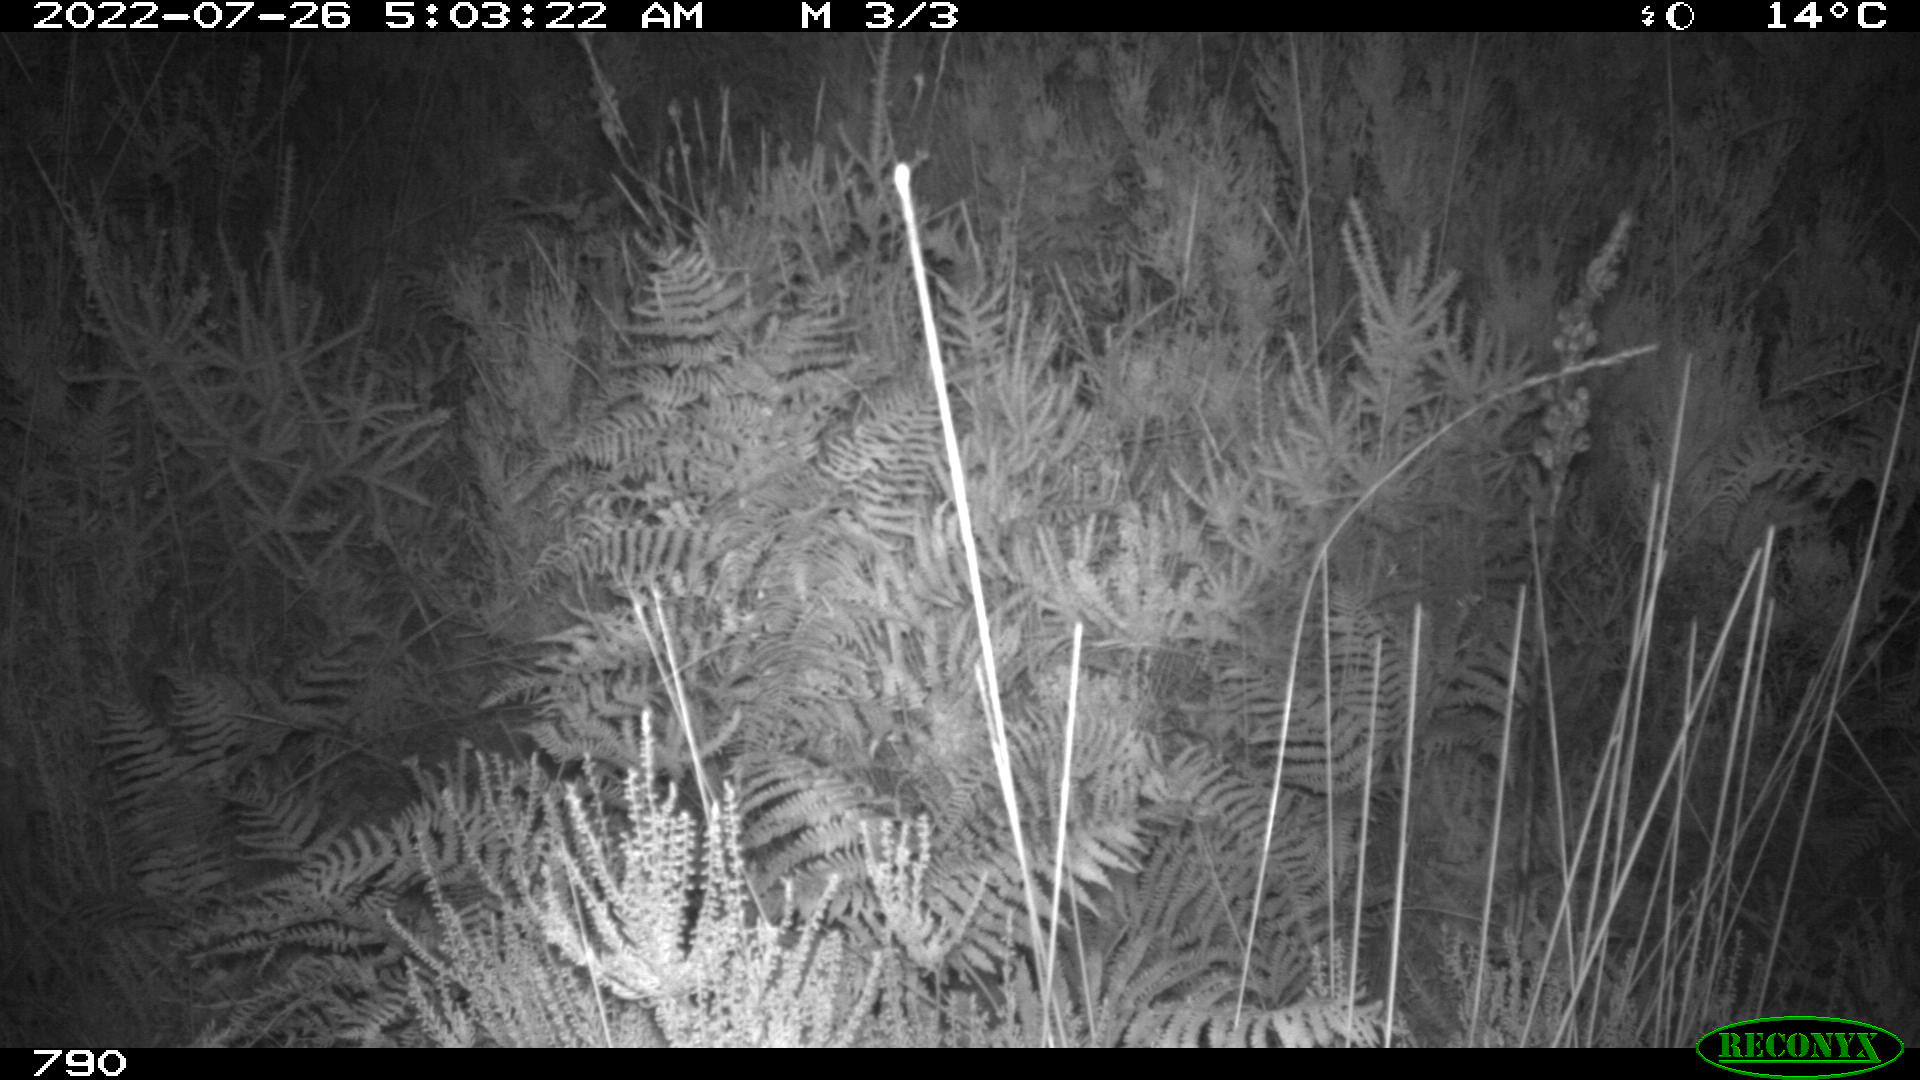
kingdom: Animalia
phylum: Chordata
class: Mammalia
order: Artiodactyla
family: Cervidae
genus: Capreolus
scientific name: Capreolus capreolus
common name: Western roe deer
